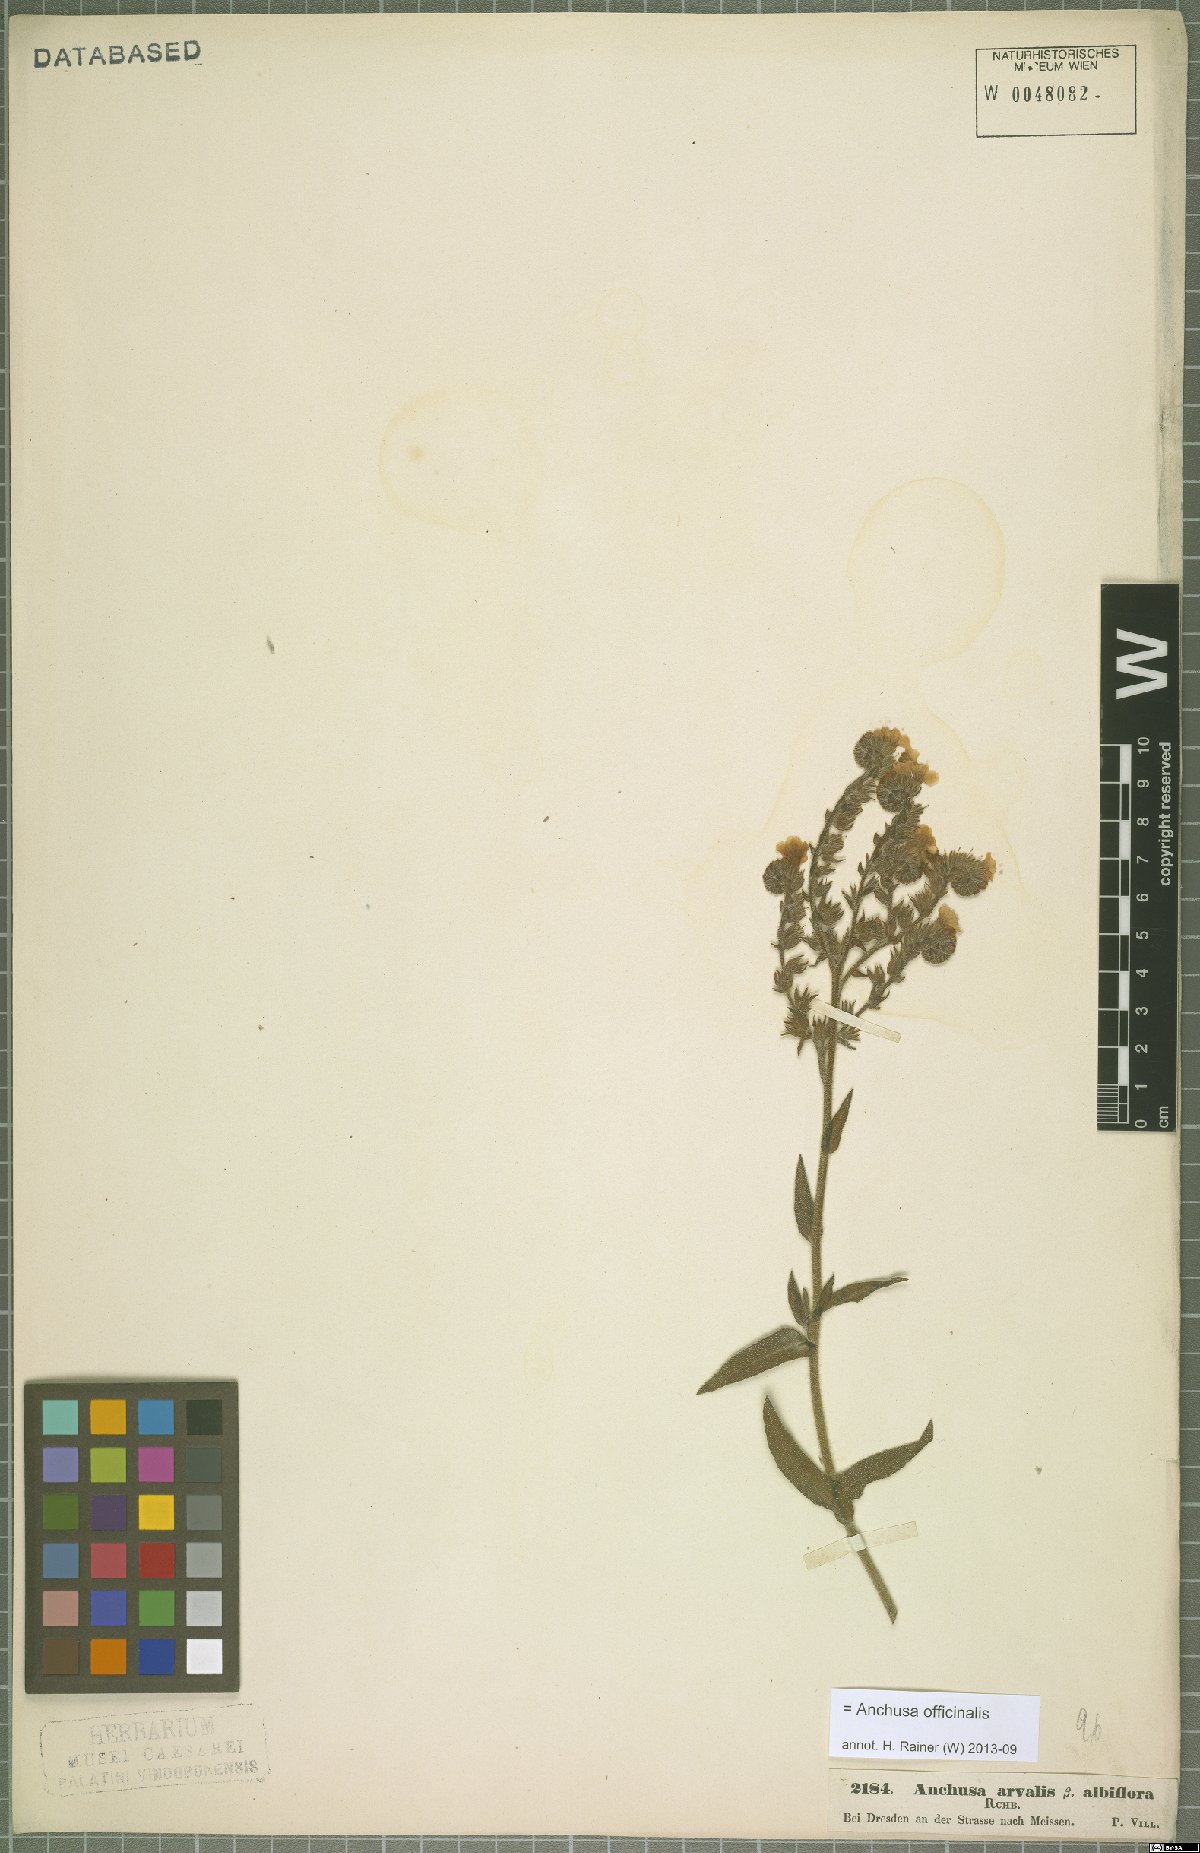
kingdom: Plantae
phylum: Tracheophyta
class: Magnoliopsida
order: Boraginales
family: Boraginaceae
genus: Anchusa
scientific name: Anchusa officinalis
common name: Alkanet
